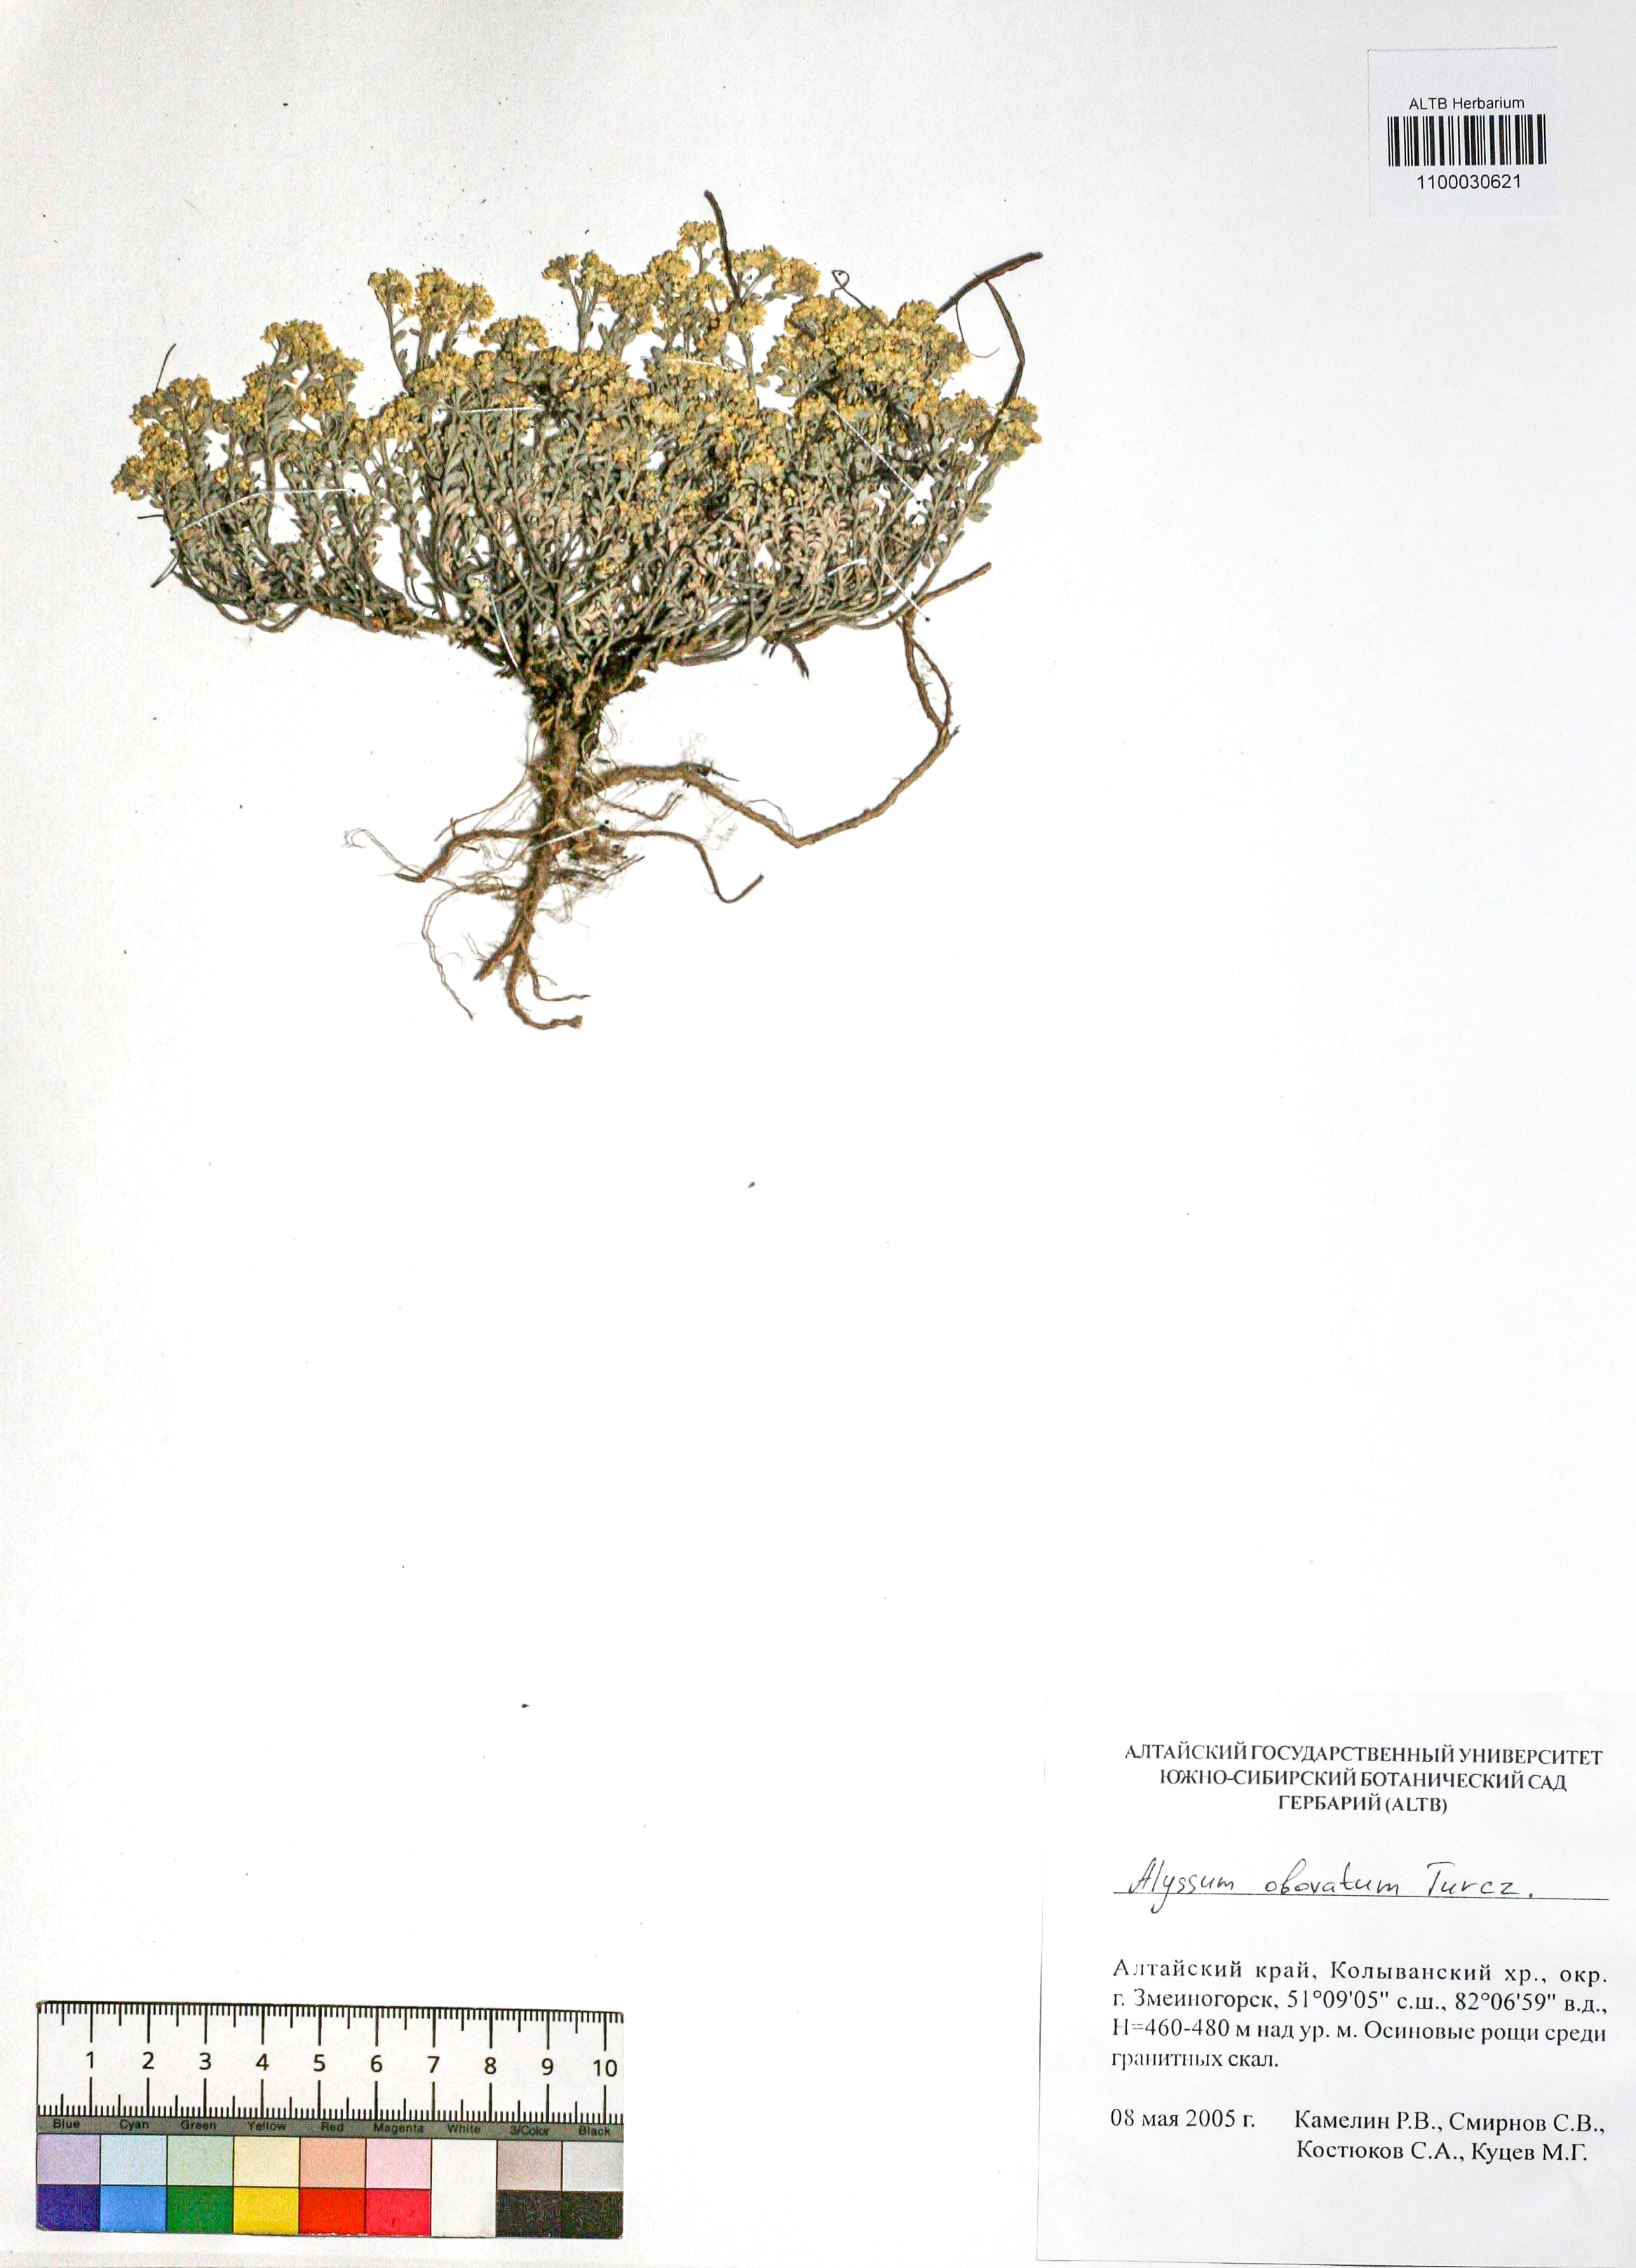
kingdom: Plantae
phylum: Tracheophyta
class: Magnoliopsida
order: Brassicales
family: Brassicaceae
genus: Odontarrhena
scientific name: Odontarrhena obovata
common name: American alyssum
